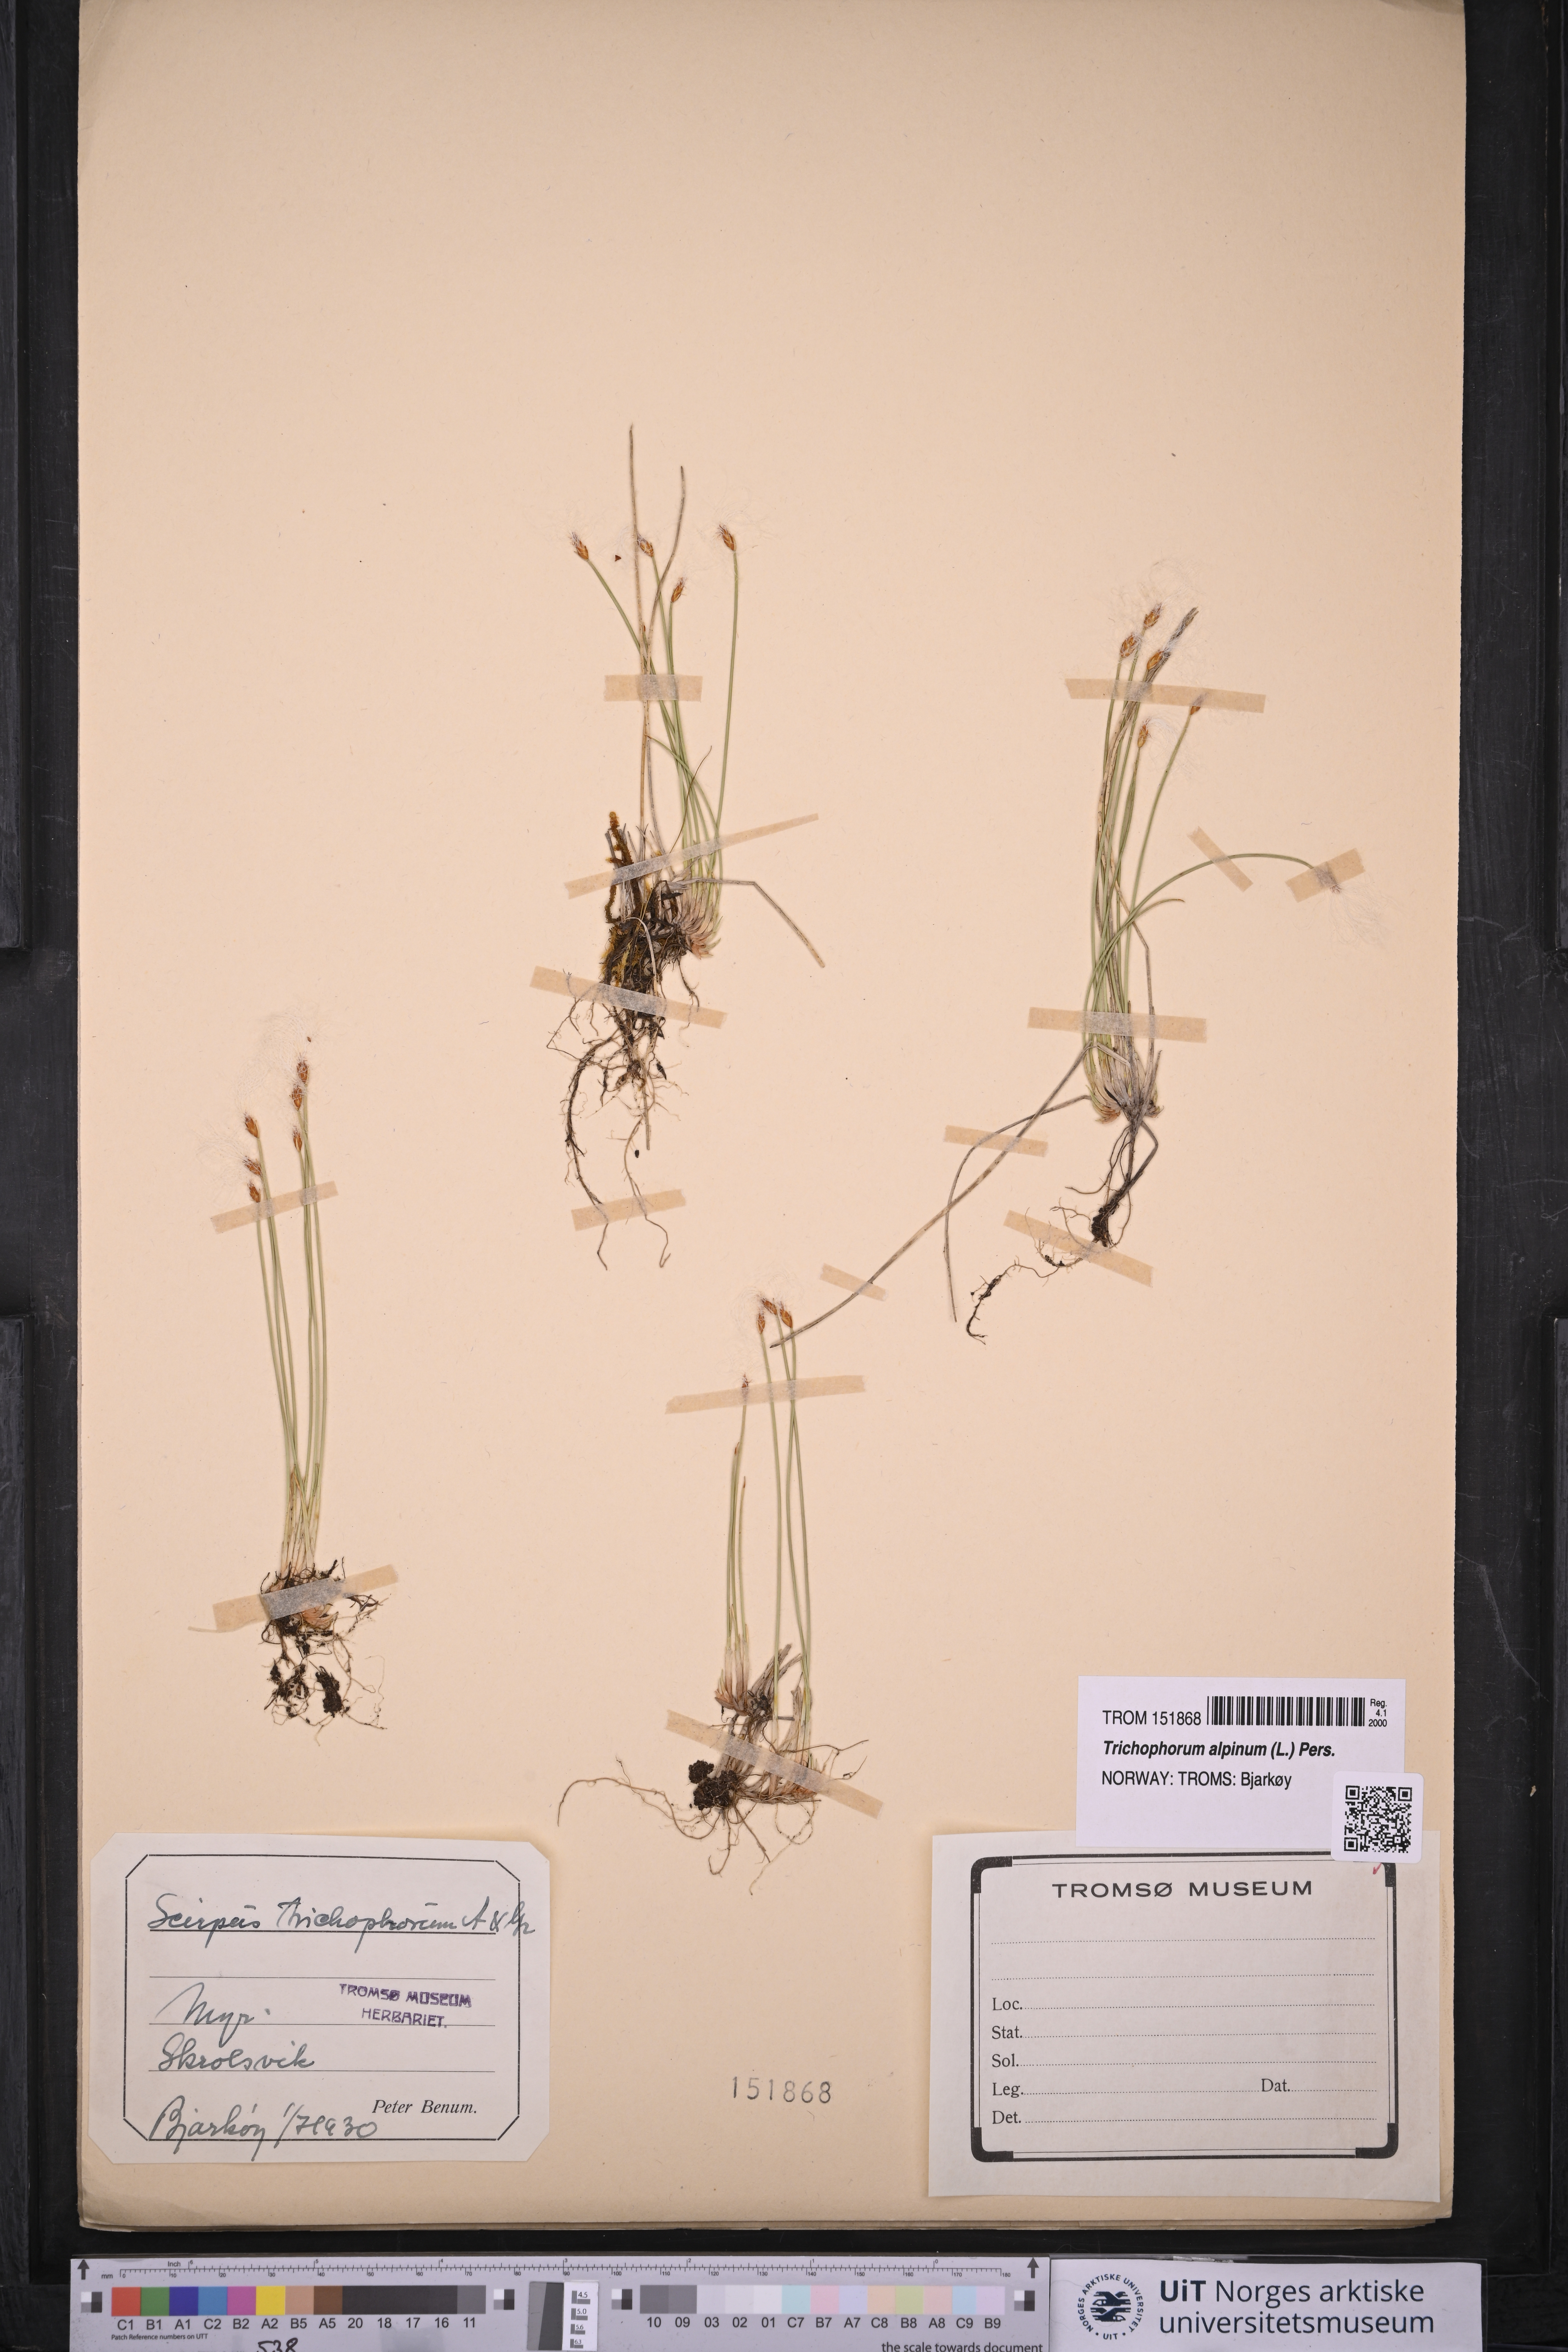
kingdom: Plantae
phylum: Tracheophyta
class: Liliopsida
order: Poales
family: Cyperaceae
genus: Trichophorum
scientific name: Trichophorum alpinum
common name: Alpine bulrush
